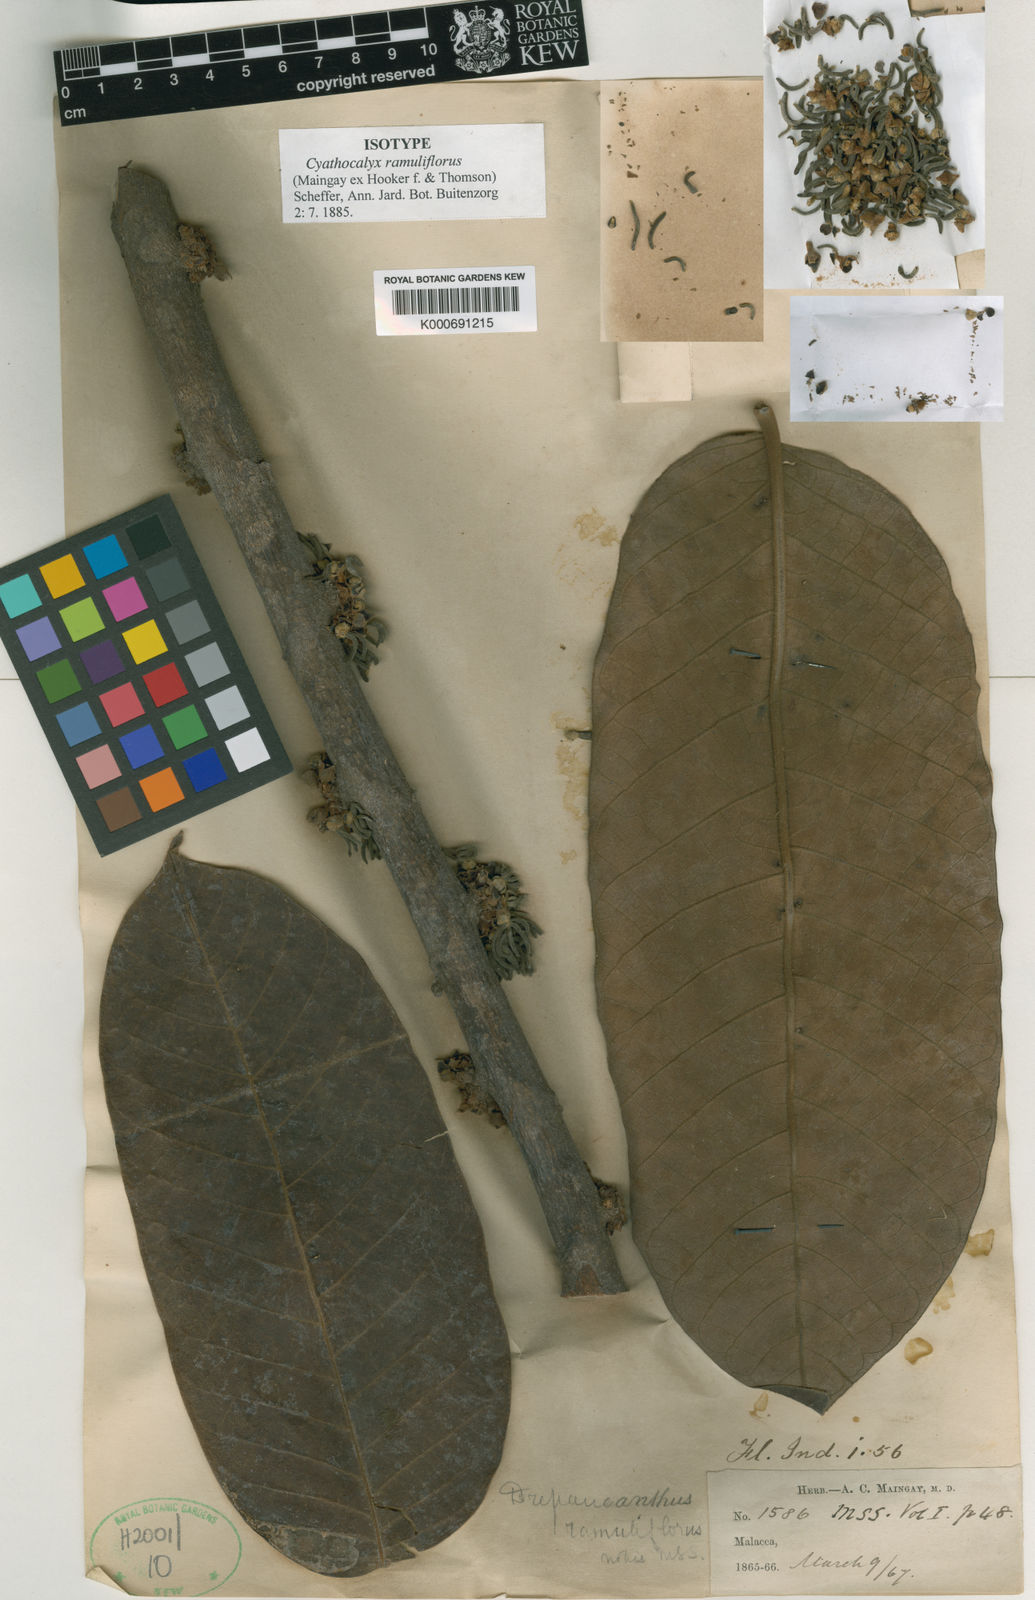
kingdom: Plantae
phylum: Tracheophyta
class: Magnoliopsida
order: Magnoliales
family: Annonaceae
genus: Drepananthus
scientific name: Drepananthus ramuliflorus
